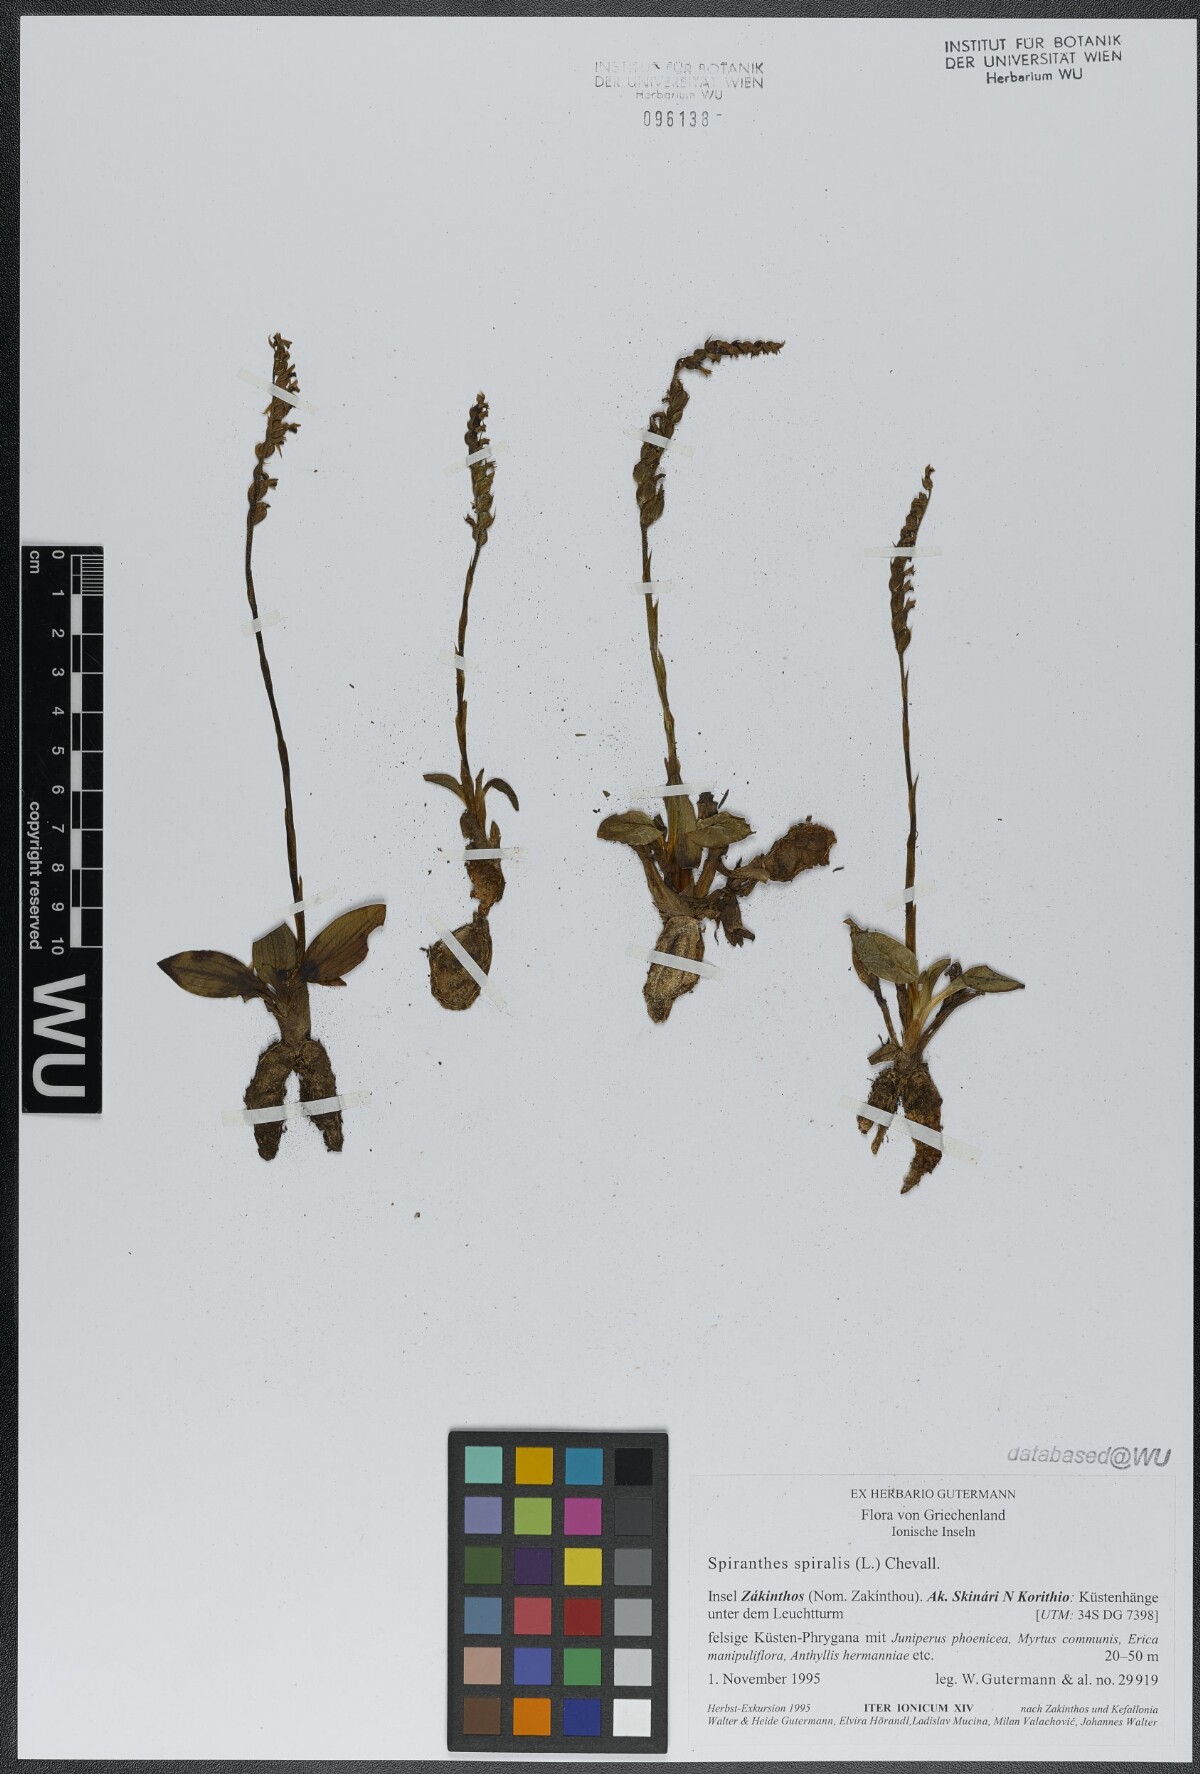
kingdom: Plantae
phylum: Tracheophyta
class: Liliopsida
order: Asparagales
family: Orchidaceae
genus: Spiranthes
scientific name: Spiranthes spiralis
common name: Autumn lady's-tresses
